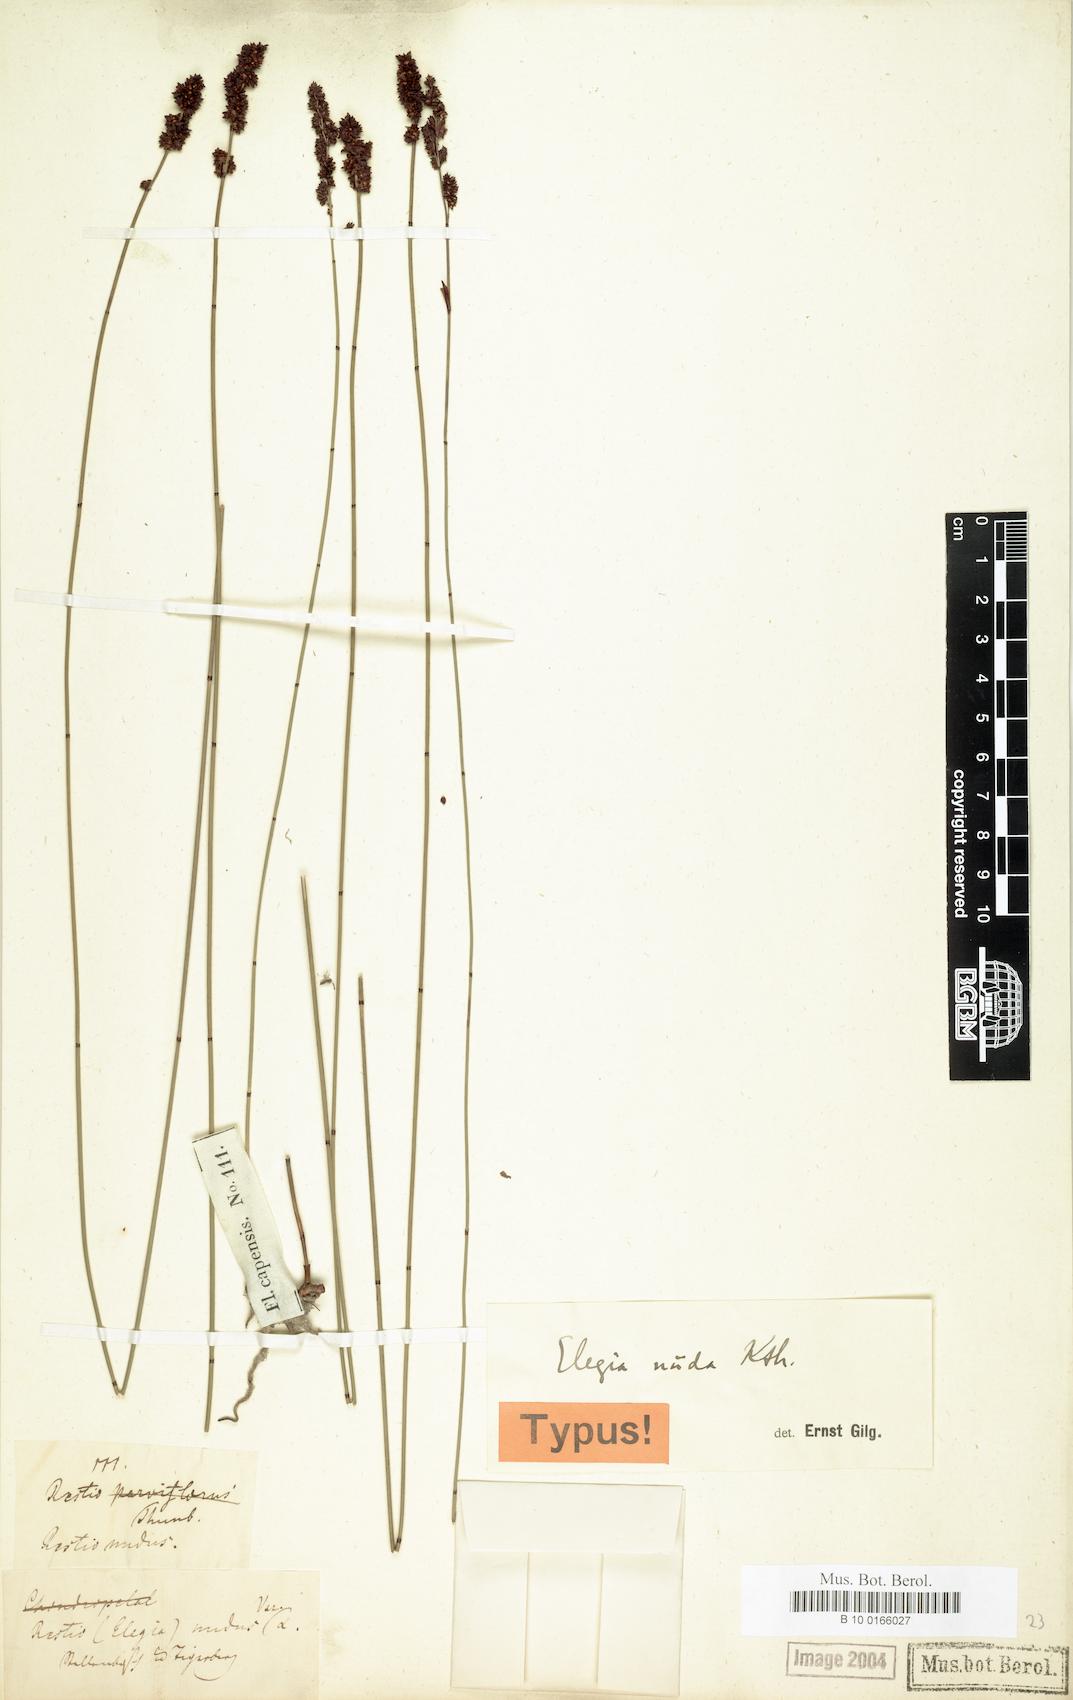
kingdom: Plantae
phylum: Tracheophyta
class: Liliopsida
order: Poales
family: Restionaceae
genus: Elegia
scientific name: Elegia nuda
